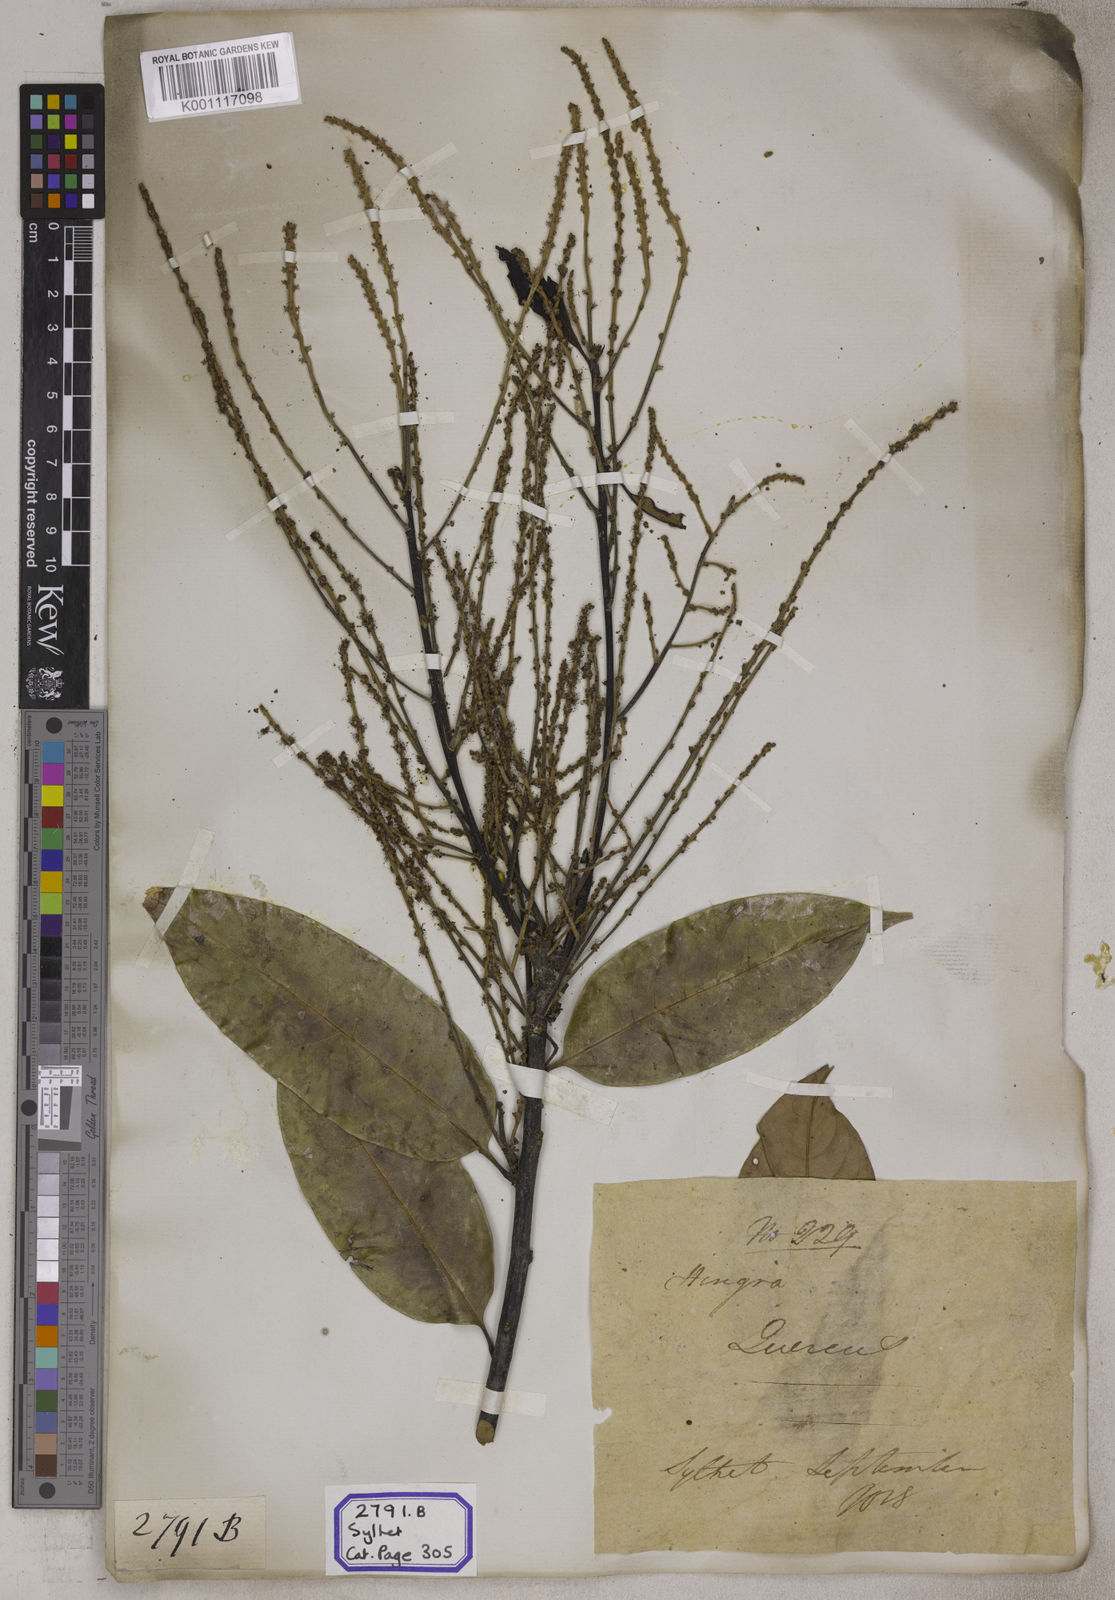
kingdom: Plantae
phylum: Tracheophyta
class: Magnoliopsida
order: Fagales
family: Fagaceae
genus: Castanopsis
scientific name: Castanopsis inermis
